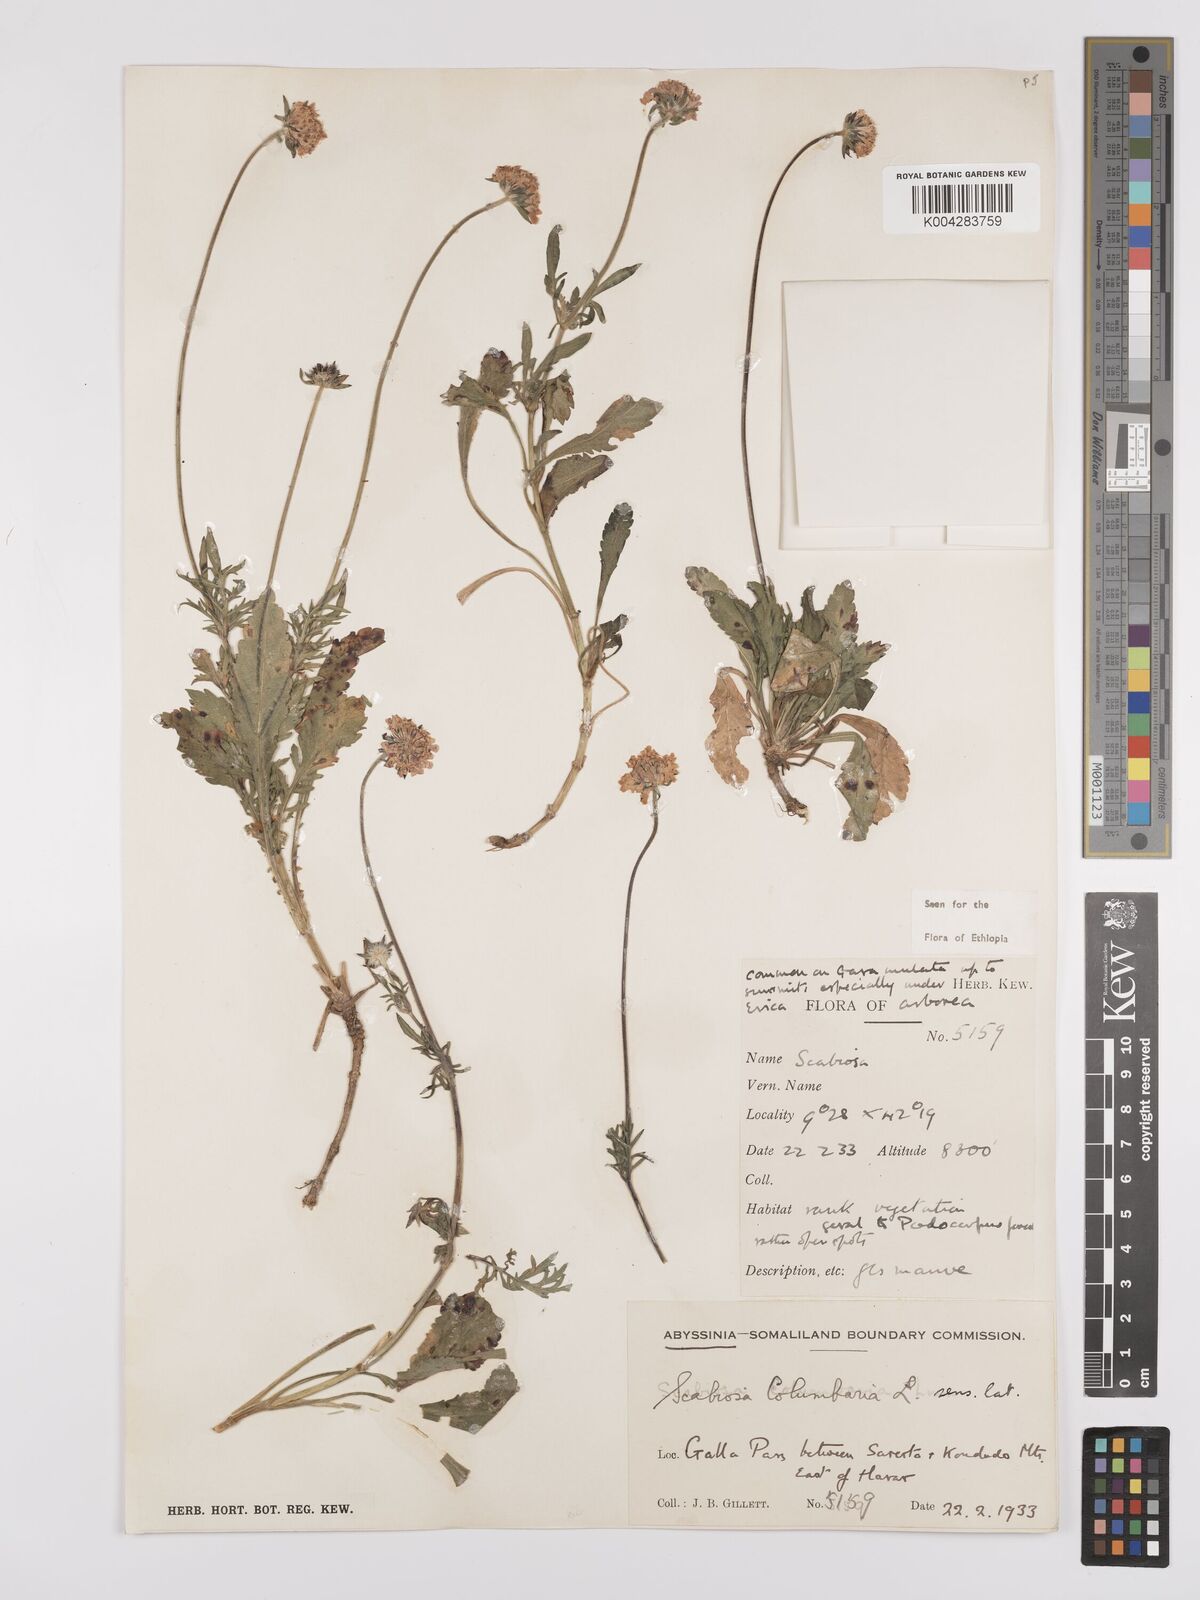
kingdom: Plantae
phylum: Tracheophyta
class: Magnoliopsida
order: Dipsacales
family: Caprifoliaceae
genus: Scabiosa
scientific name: Scabiosa columbaria
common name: Small scabious
